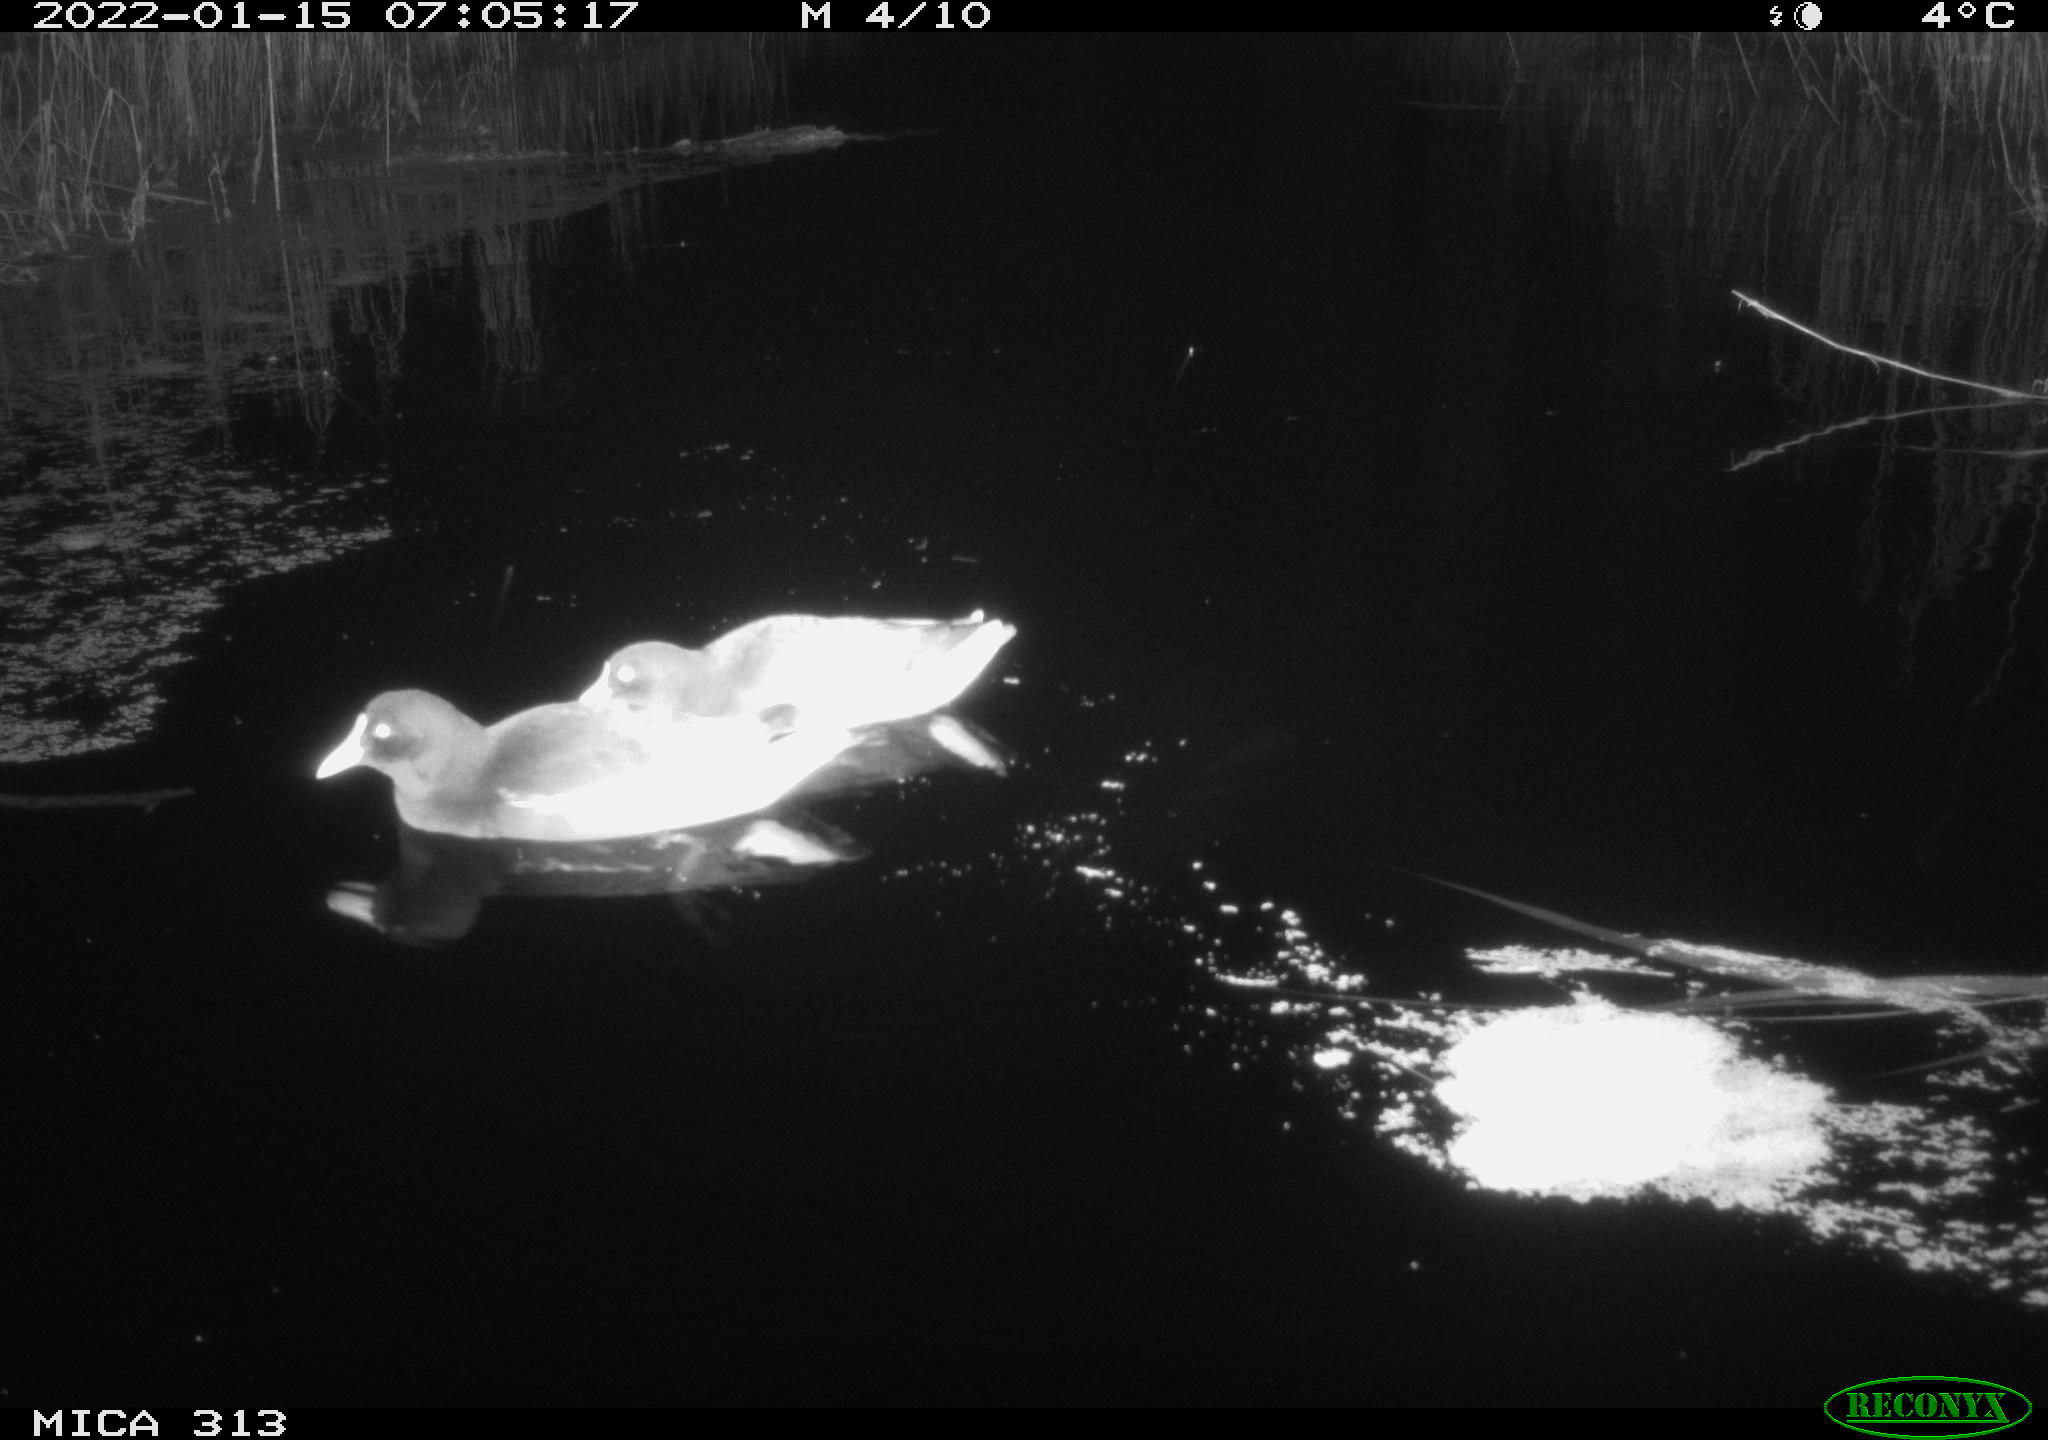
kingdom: Animalia
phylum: Chordata
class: Aves
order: Gruiformes
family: Rallidae
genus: Gallinula
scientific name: Gallinula chloropus
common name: Common moorhen
